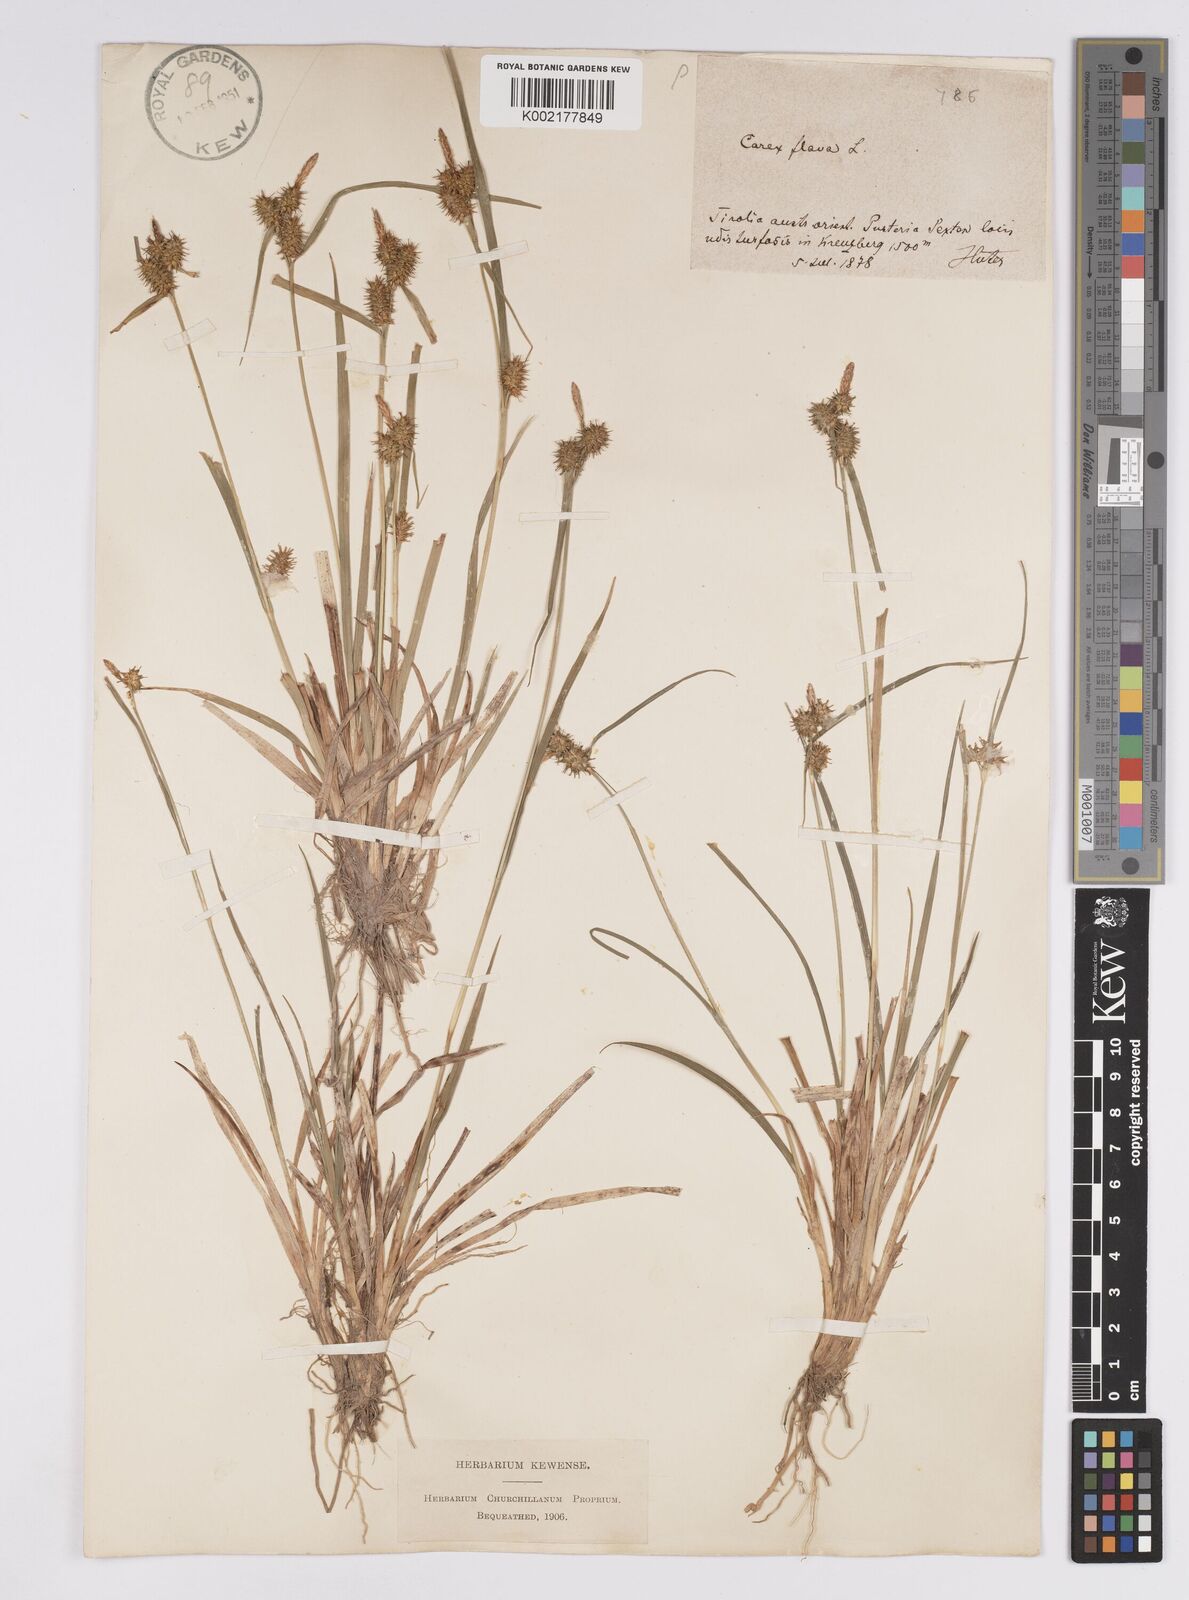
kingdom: Plantae
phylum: Tracheophyta
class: Liliopsida
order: Poales
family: Cyperaceae
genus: Carex
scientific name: Carex flava
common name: Large yellow-sedge
